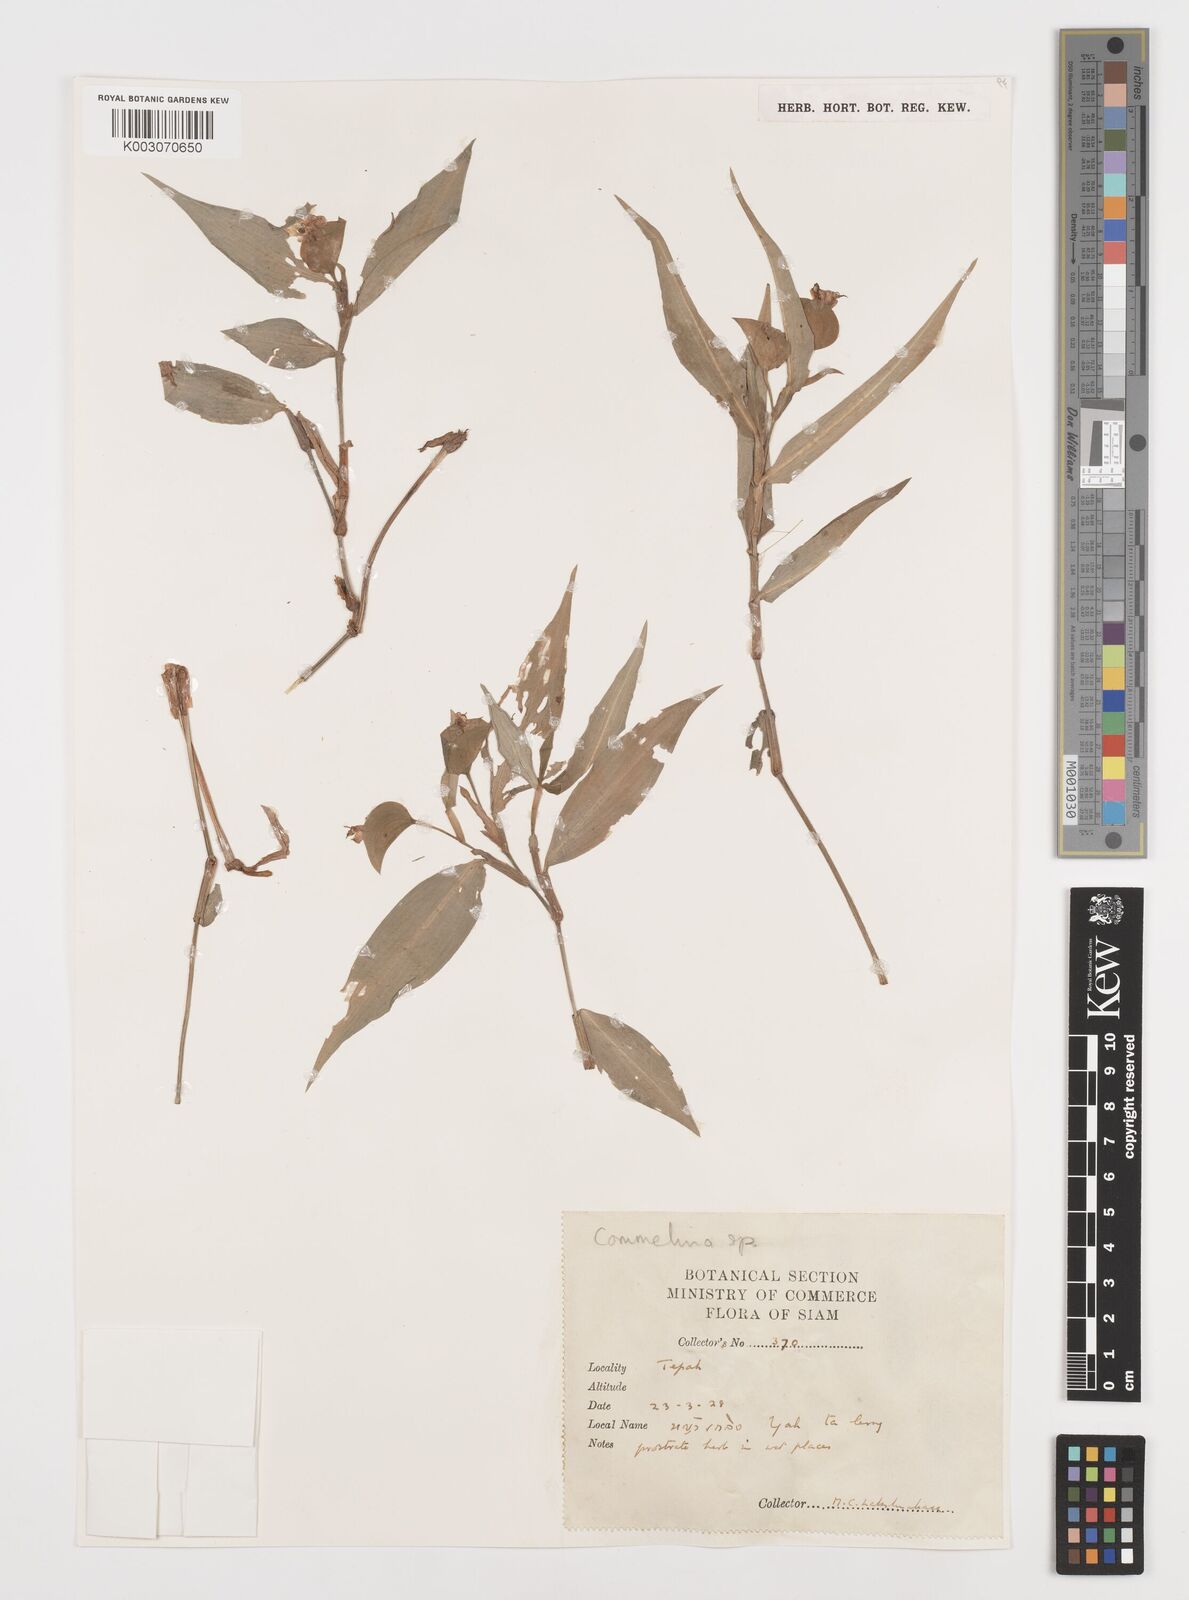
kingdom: Plantae
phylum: Tracheophyta
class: Liliopsida
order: Commelinales
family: Commelinaceae
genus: Commelina
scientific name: Commelina
